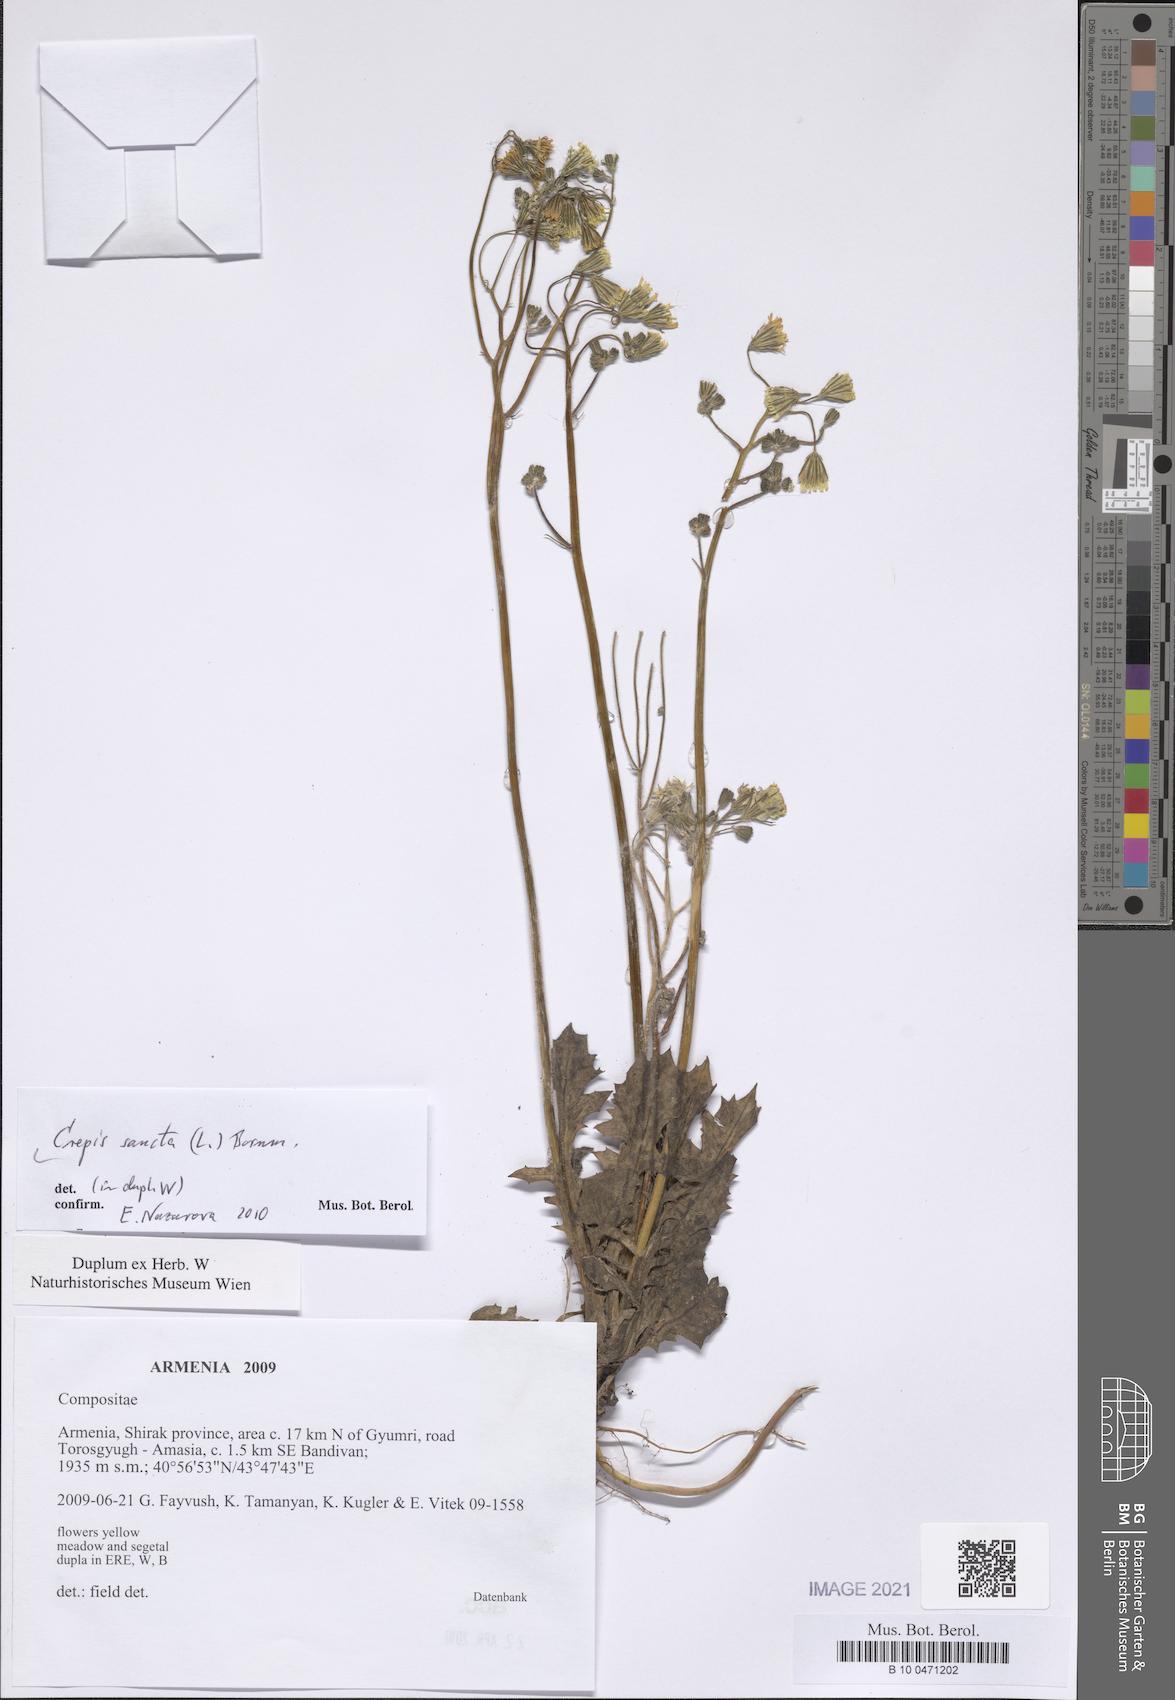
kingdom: Plantae
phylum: Tracheophyta
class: Magnoliopsida
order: Asterales
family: Asteraceae
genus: Crepis
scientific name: Crepis sancta
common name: Hawk's-beard
